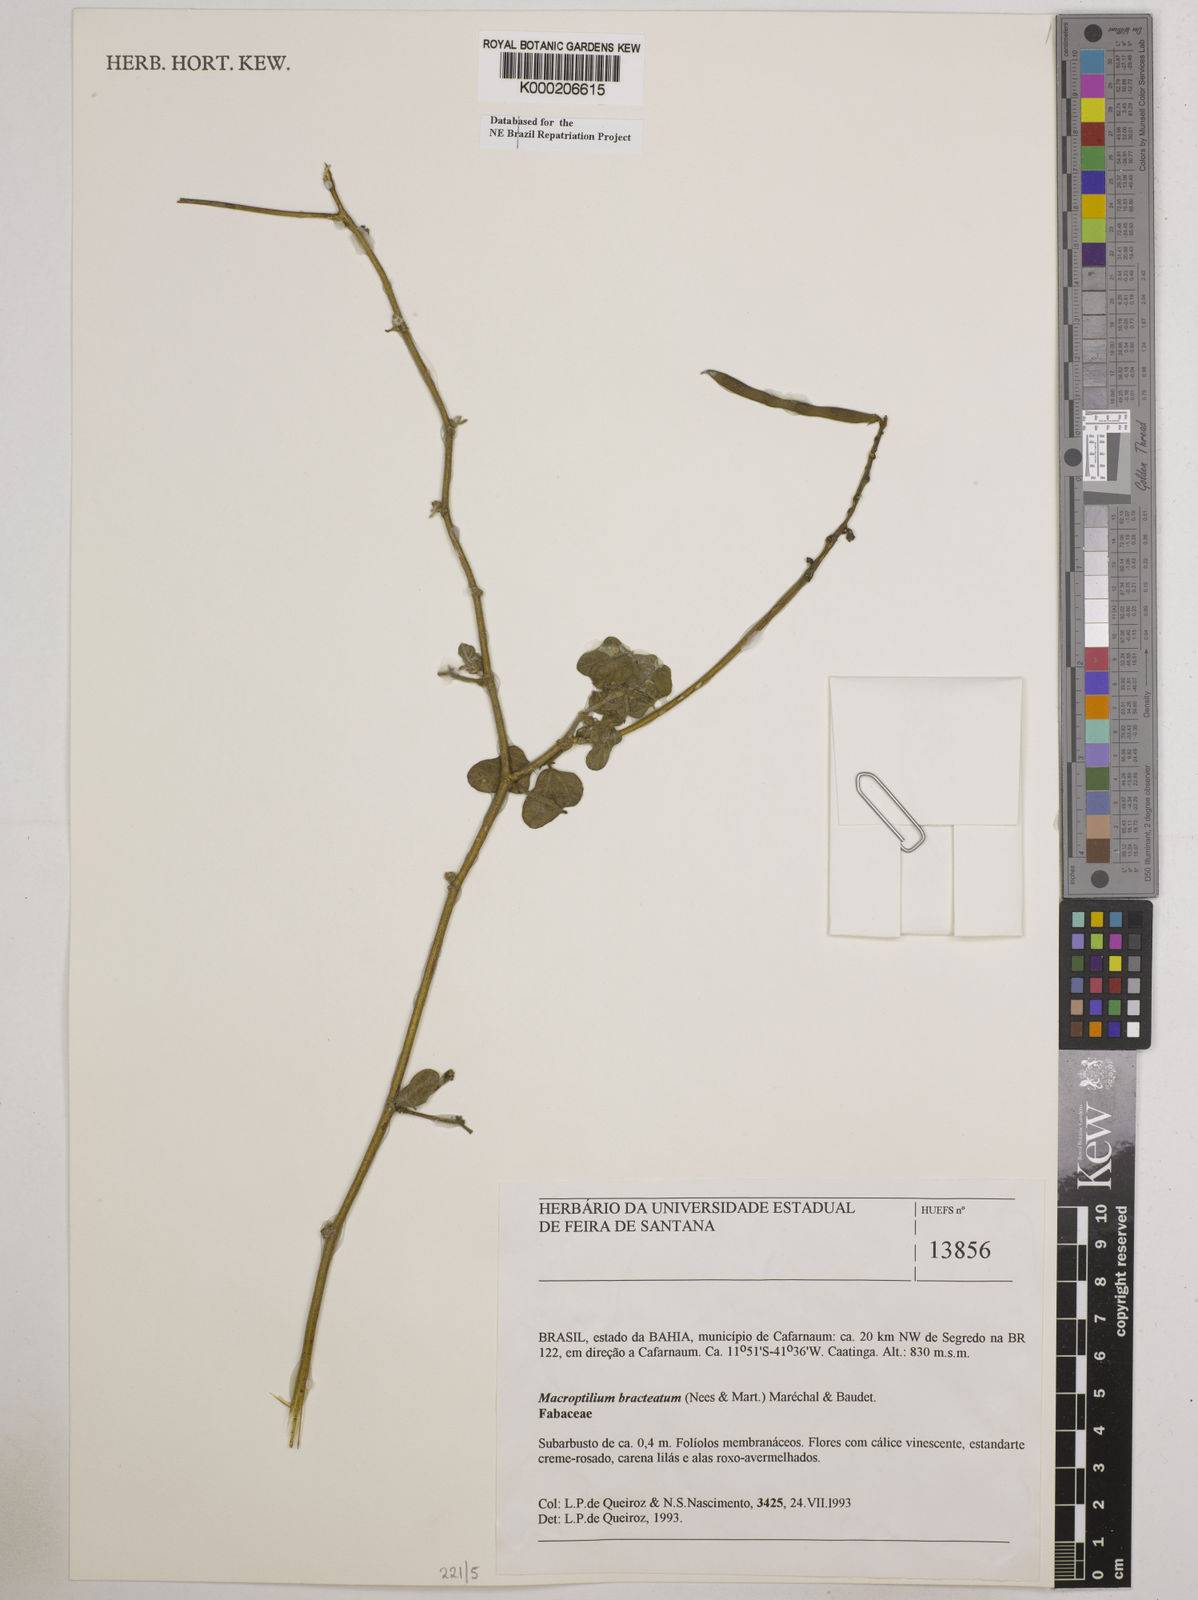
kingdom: Plantae
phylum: Tracheophyta
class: Magnoliopsida
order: Fabales
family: Fabaceae
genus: Macroptilium
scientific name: Macroptilium
